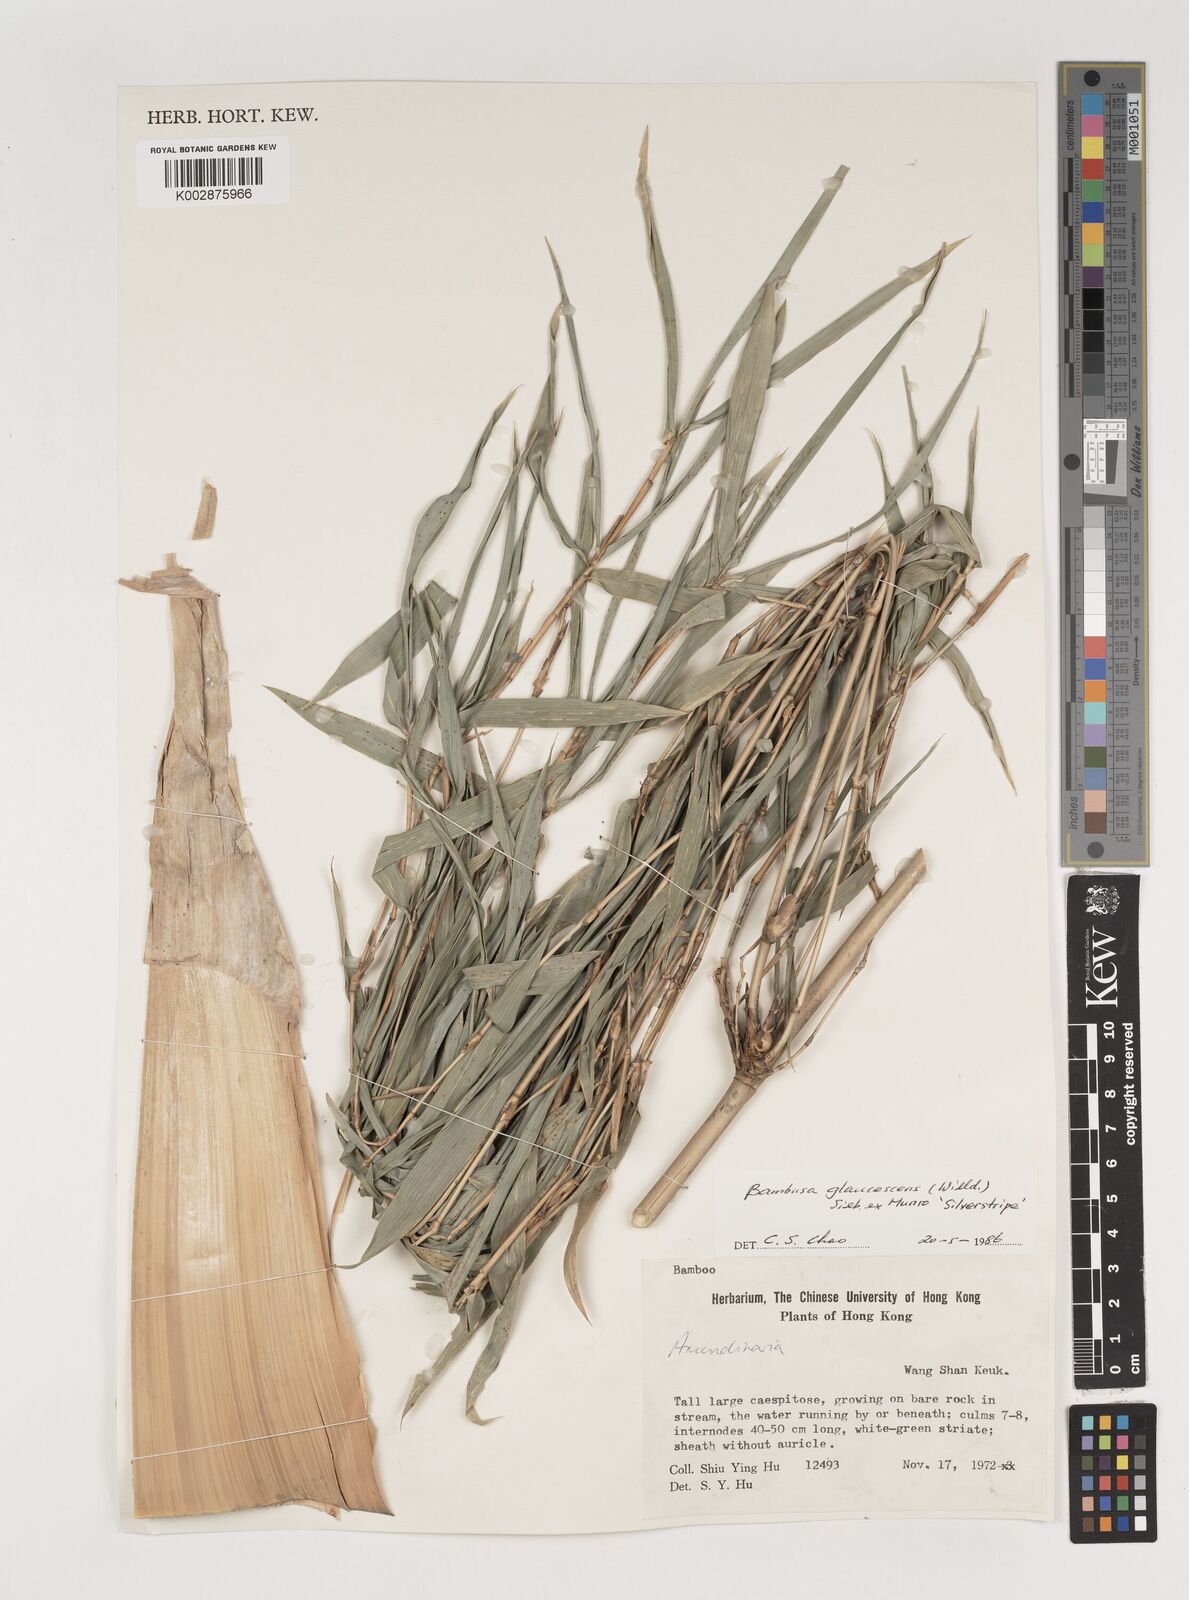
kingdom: Plantae
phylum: Tracheophyta
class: Liliopsida
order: Poales
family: Poaceae
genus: Bambusa
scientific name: Bambusa multiplex
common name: Hedge bamboo
